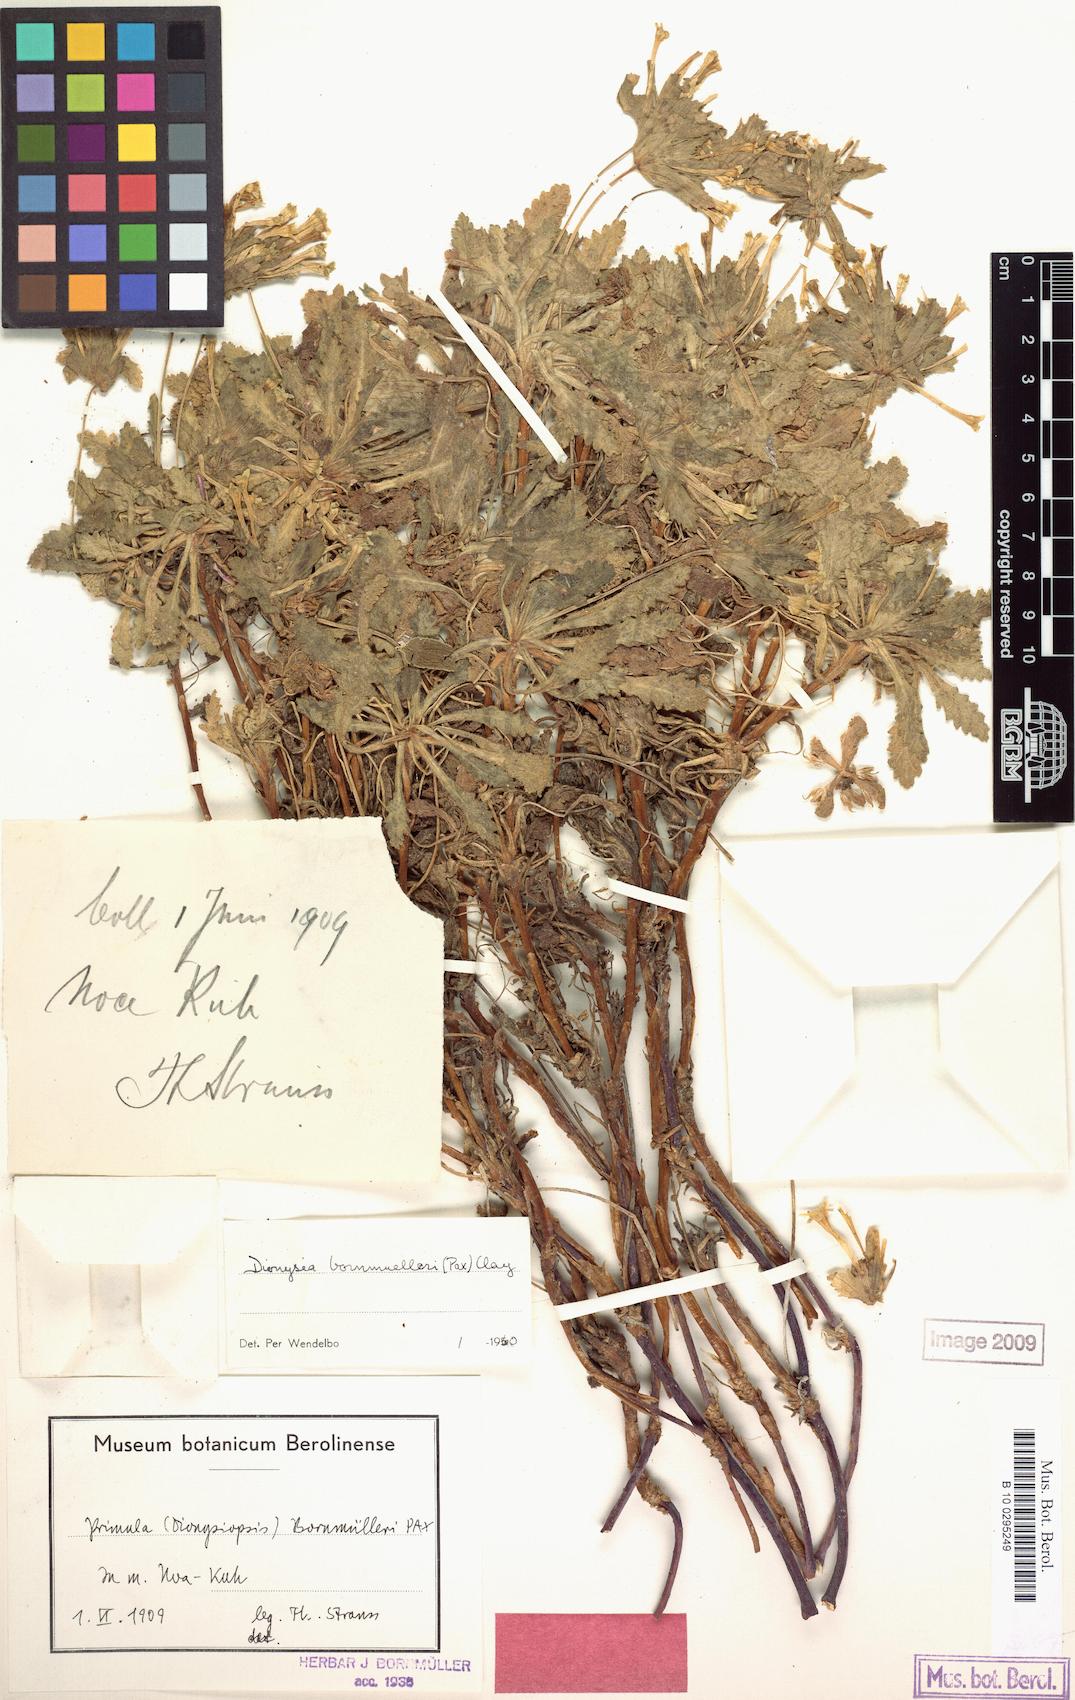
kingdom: Plantae
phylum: Tracheophyta
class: Magnoliopsida
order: Ericales
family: Primulaceae
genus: Dionysia
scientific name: Dionysia bornmuelleri
